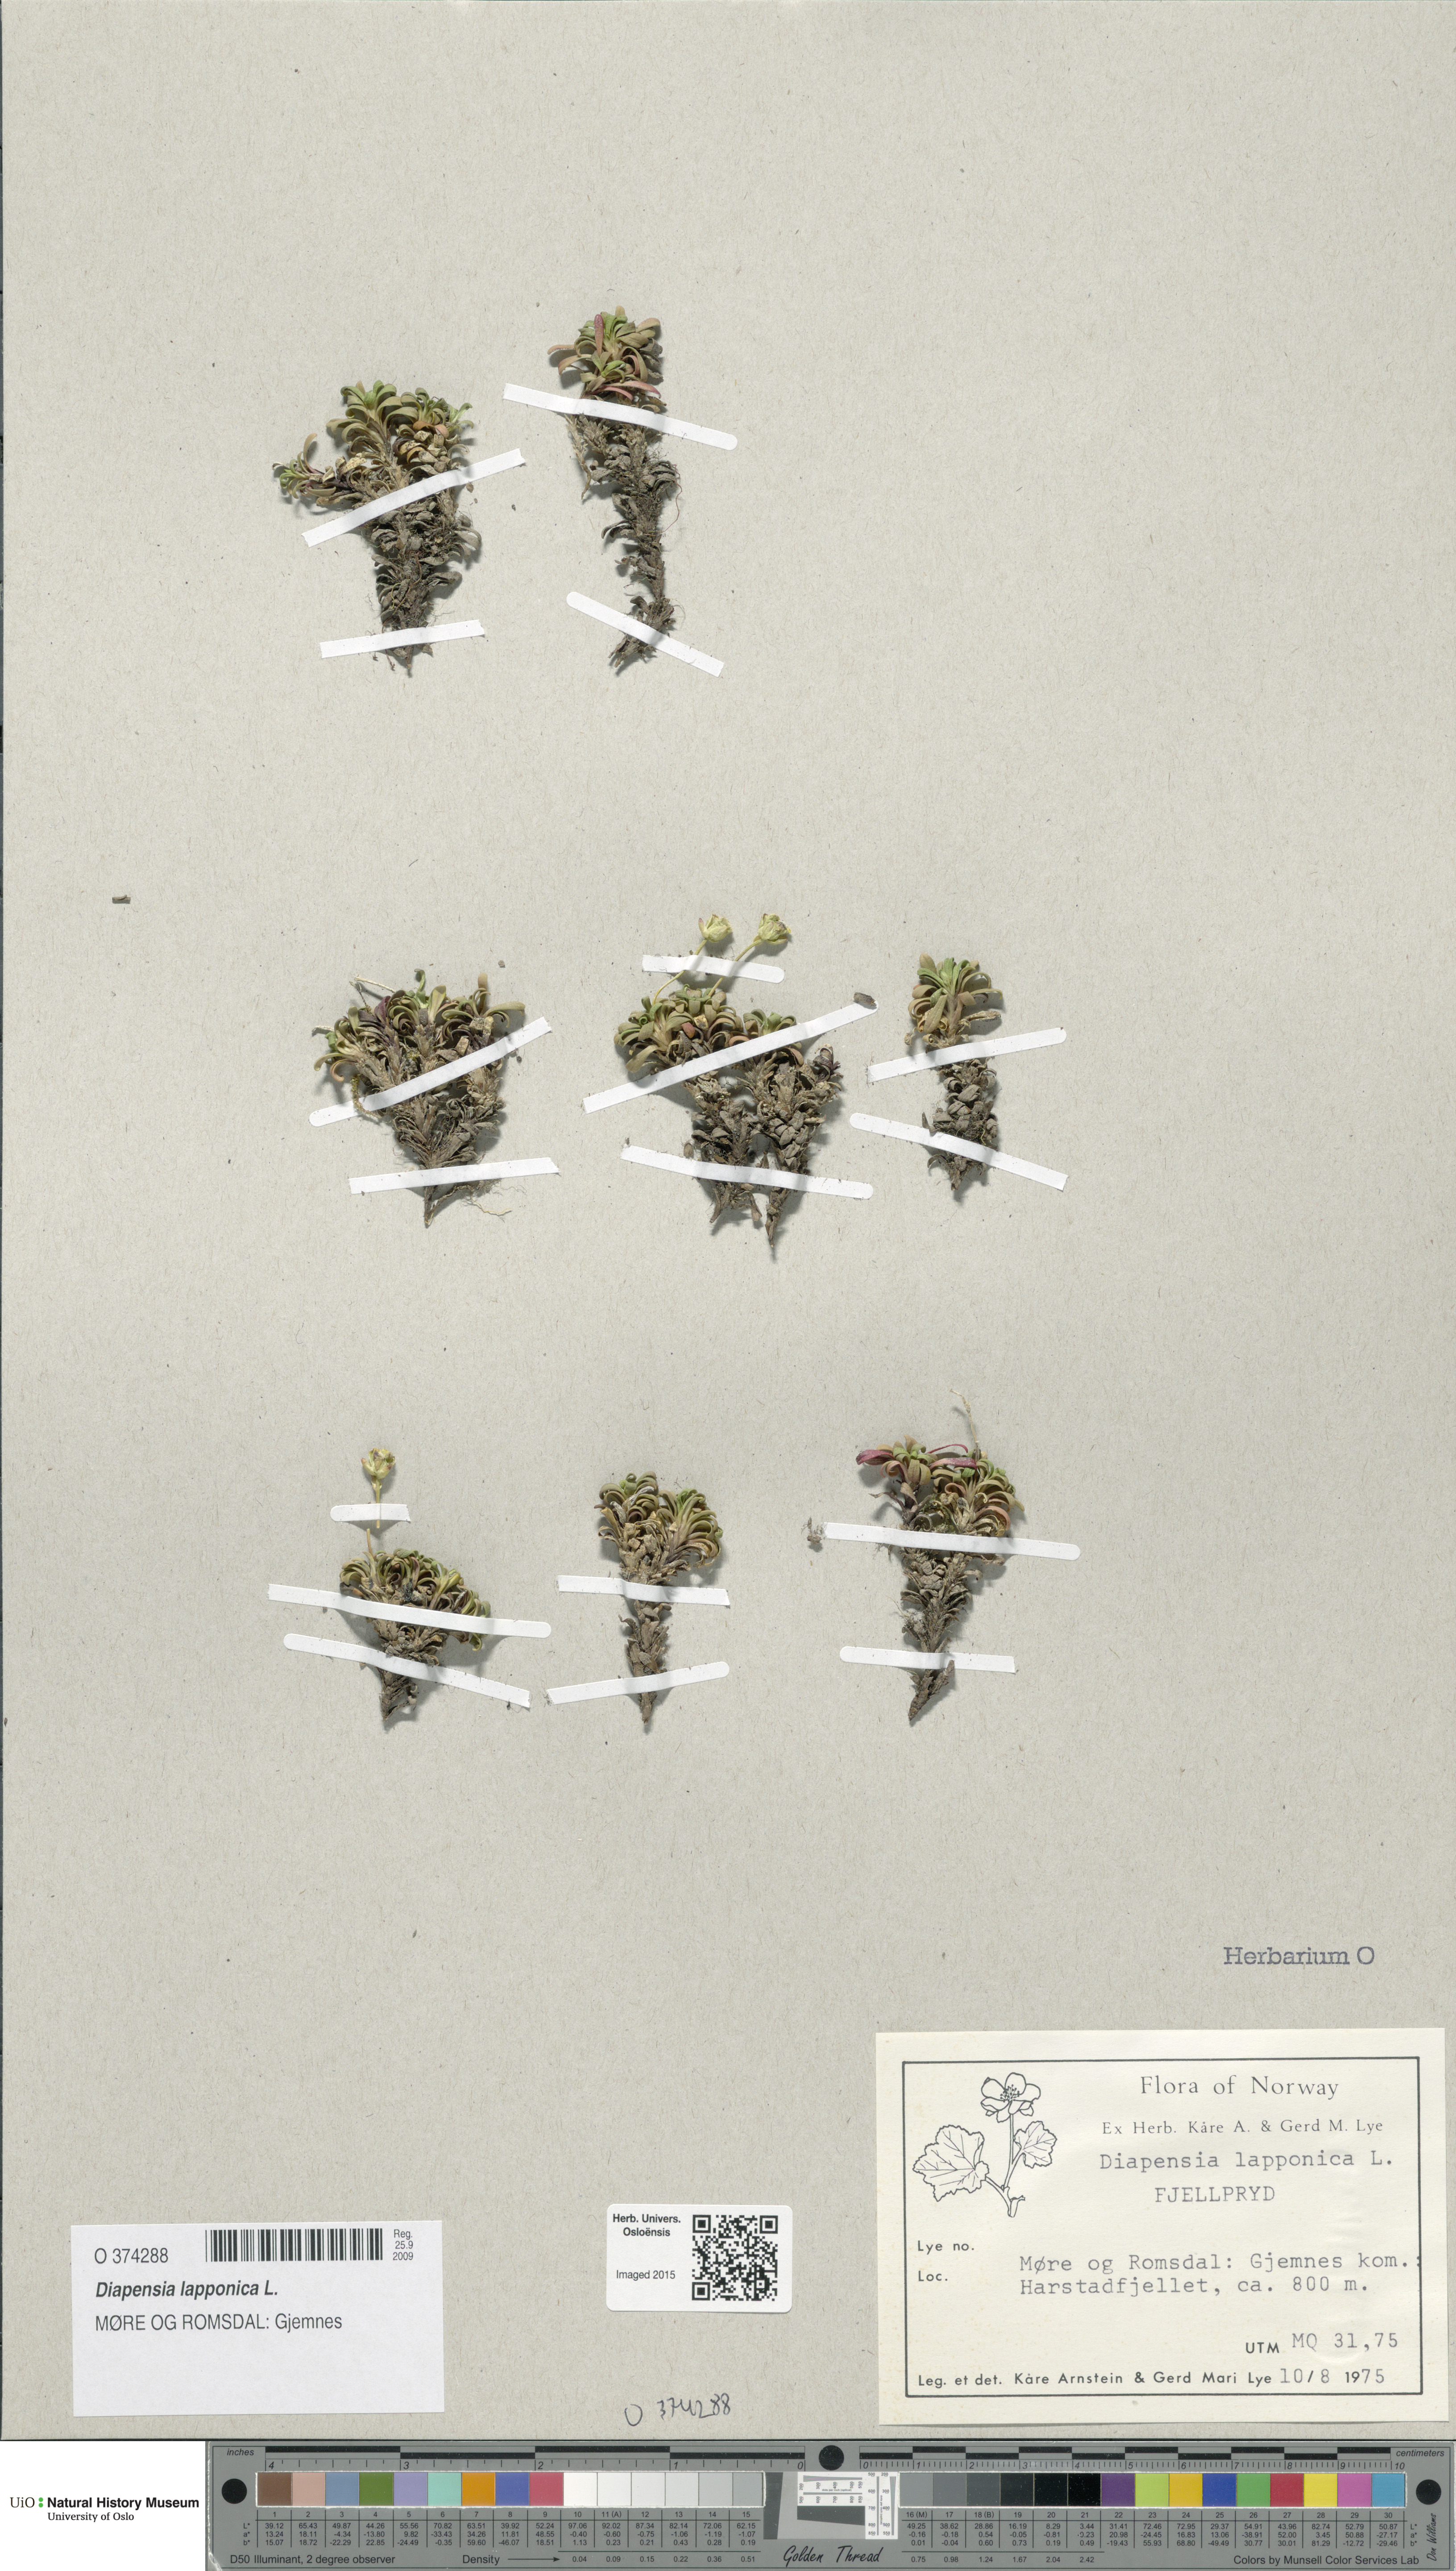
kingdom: Plantae
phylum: Tracheophyta
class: Magnoliopsida
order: Ericales
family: Diapensiaceae
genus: Diapensia
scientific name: Diapensia lapponica
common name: Diapensia
